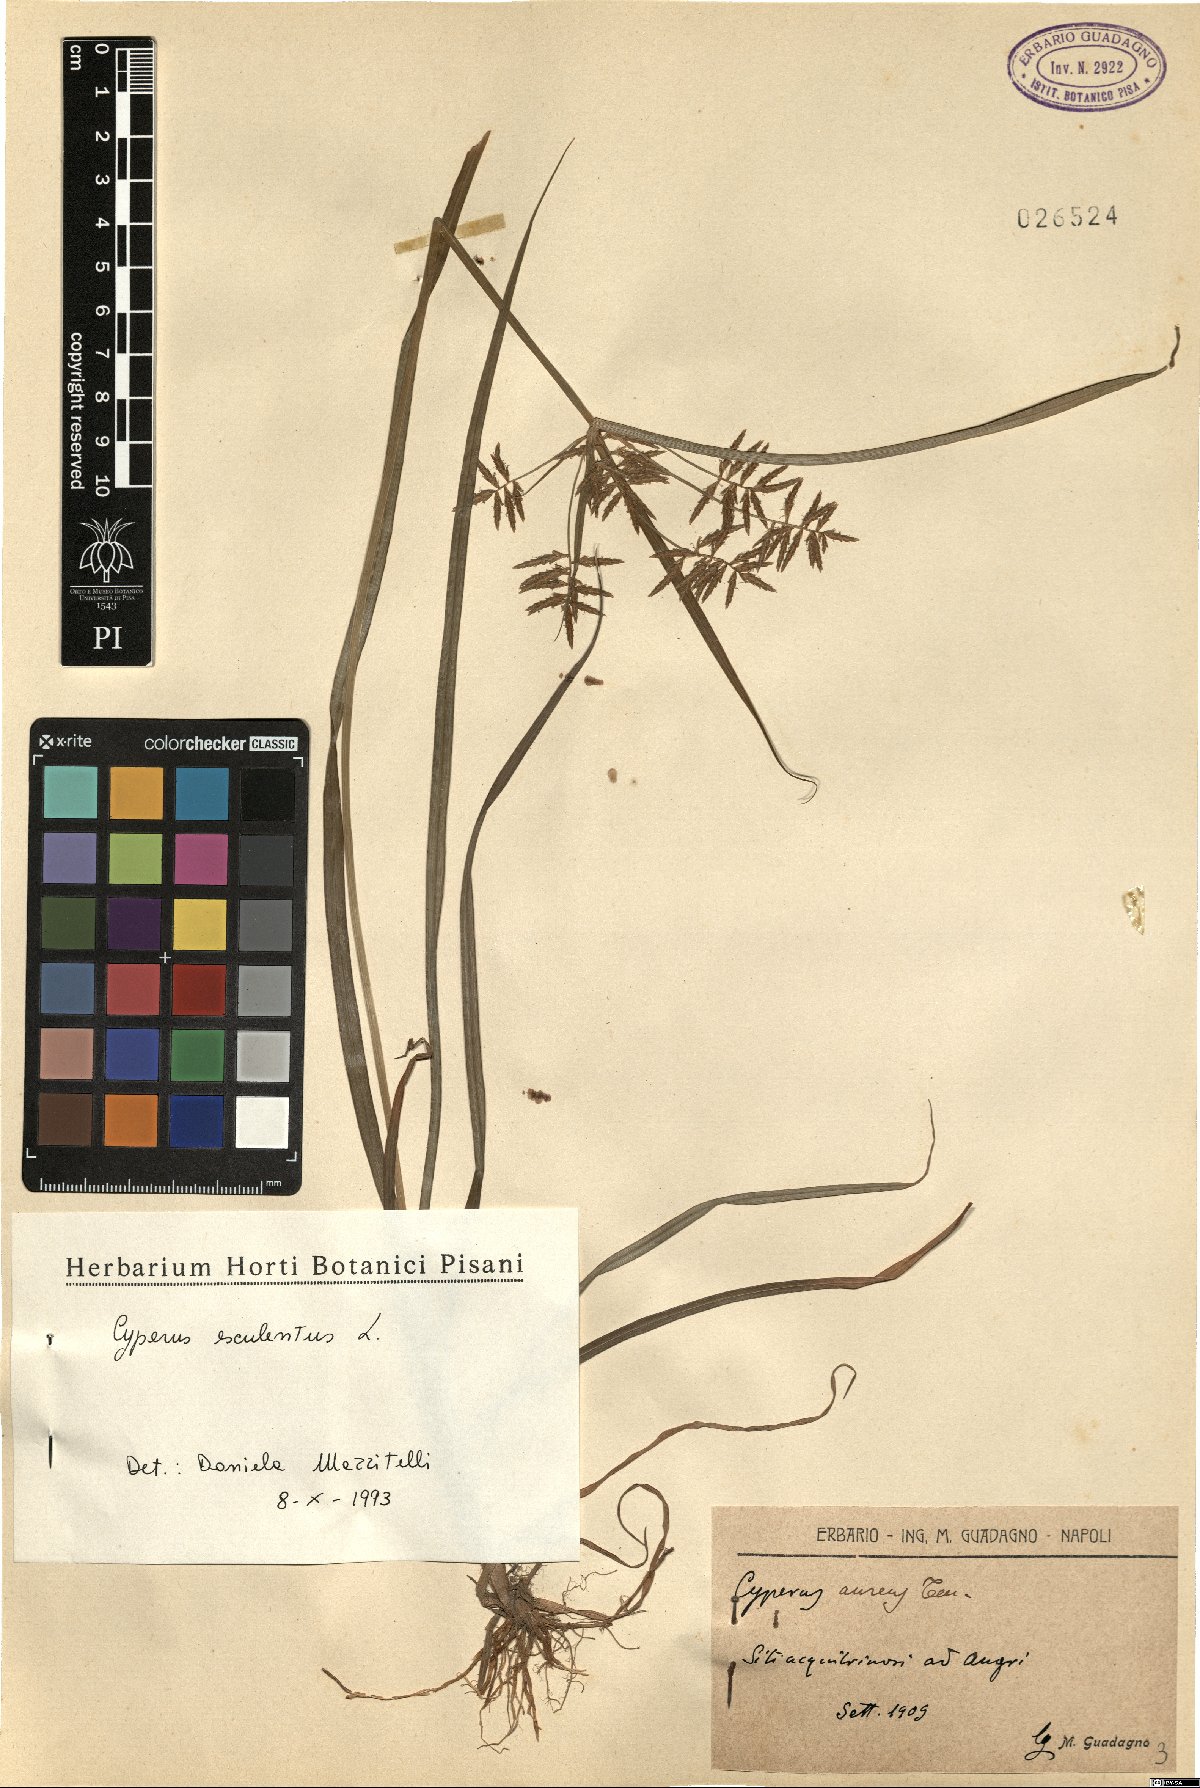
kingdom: Plantae
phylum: Tracheophyta
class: Liliopsida
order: Poales
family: Cyperaceae
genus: Cyperus
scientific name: Cyperus esculentus
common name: Yellow nutsedge
